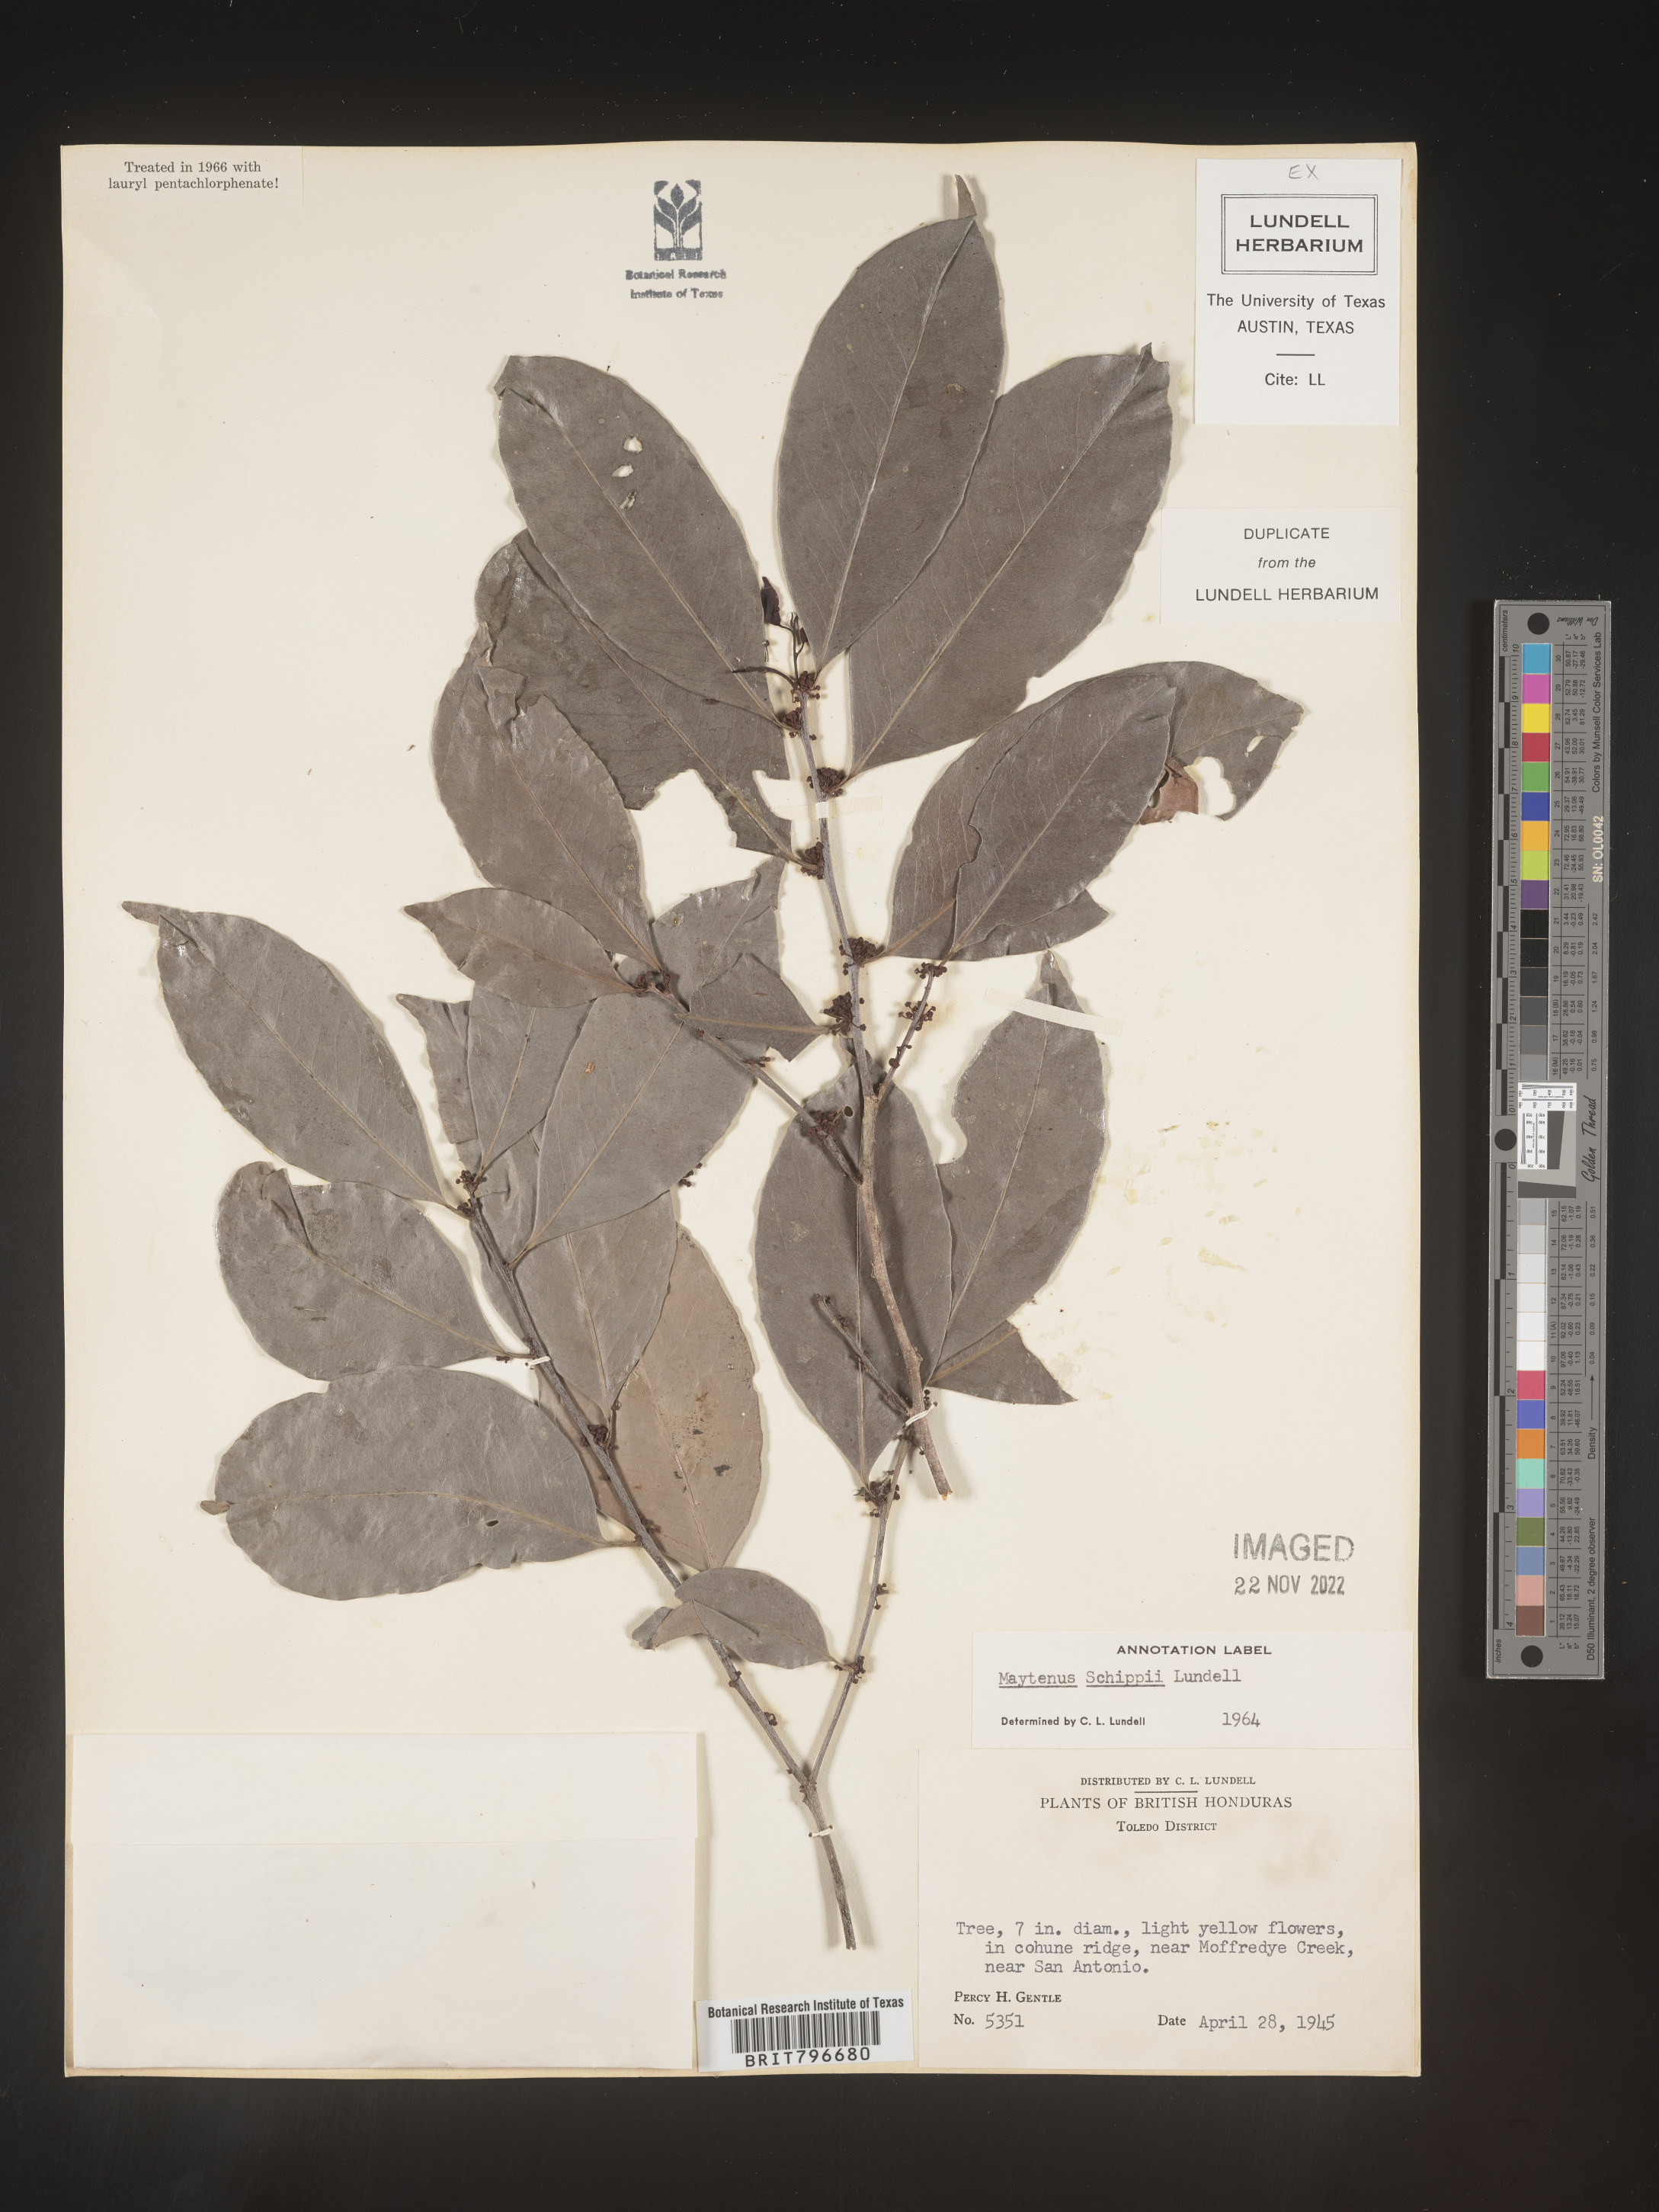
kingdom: Plantae
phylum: Tracheophyta
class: Magnoliopsida
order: Celastrales
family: Celastraceae
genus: Monteverdia
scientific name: Monteverdia schippii
